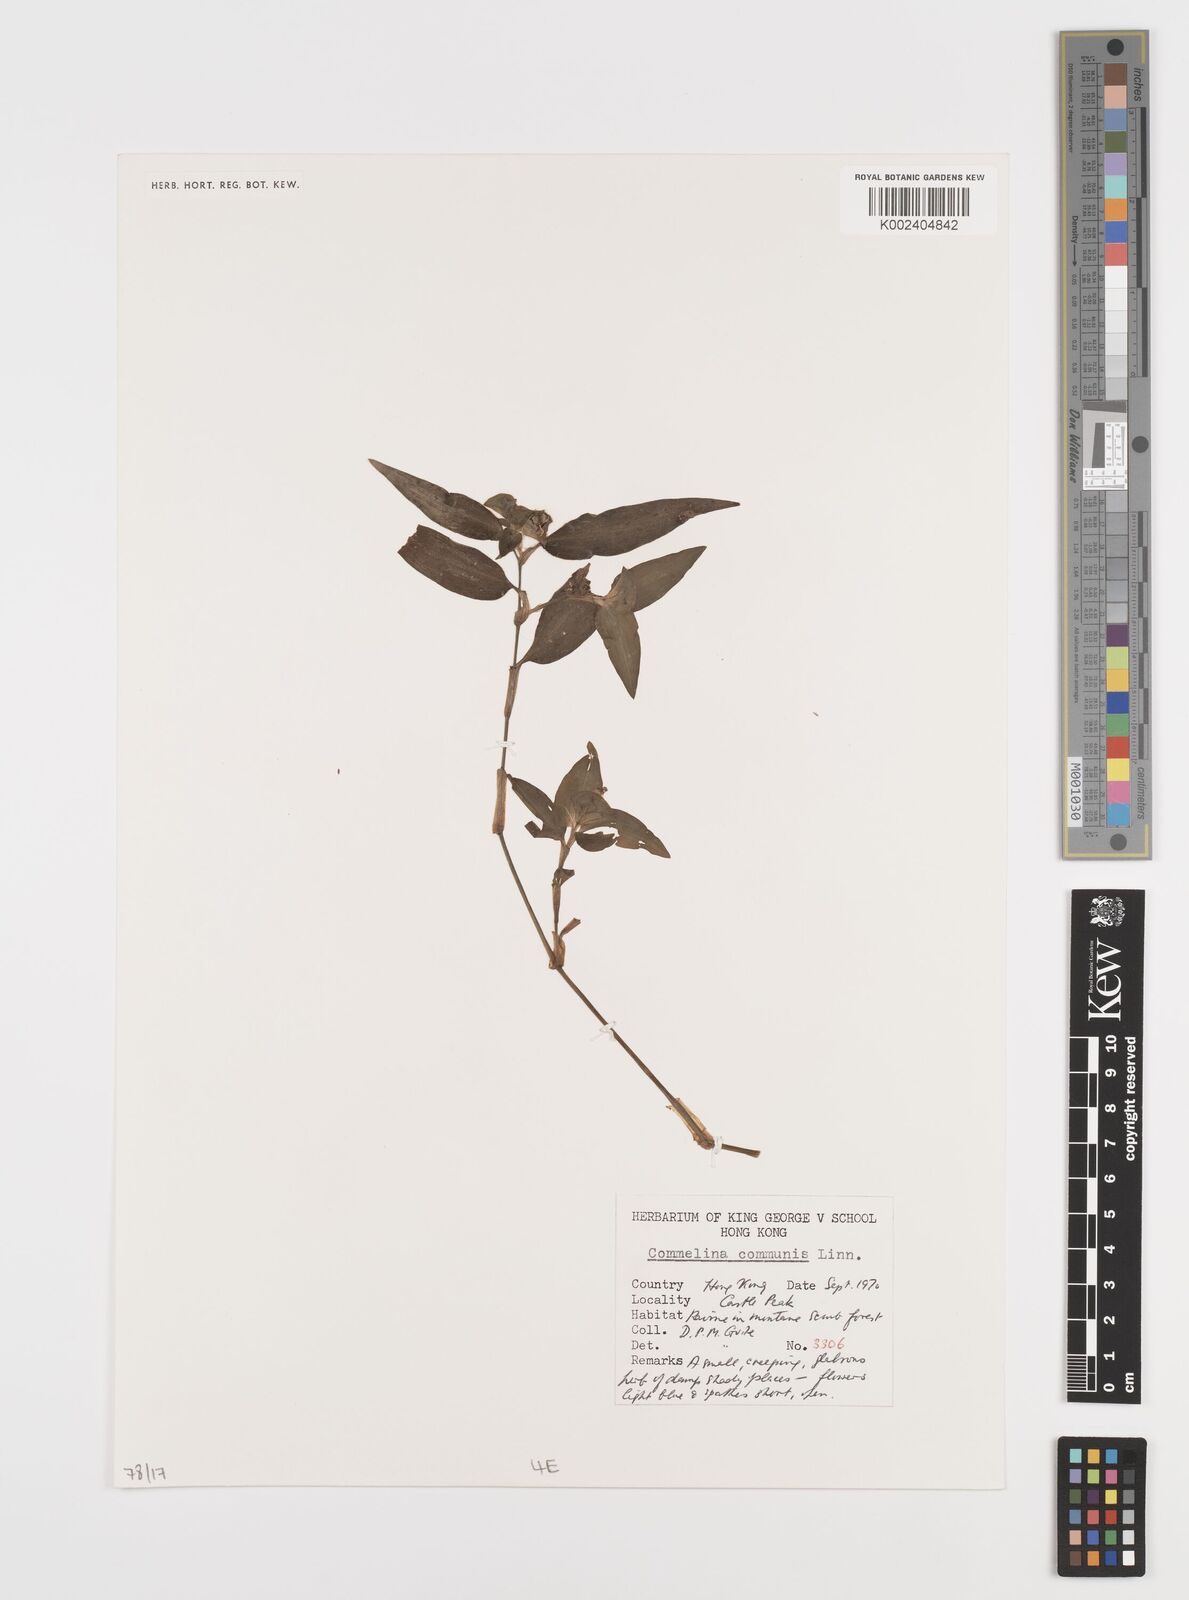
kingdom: Plantae
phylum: Tracheophyta
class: Liliopsida
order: Commelinales
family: Commelinaceae
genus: Commelina
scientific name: Commelina communis
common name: Asiatic dayflower
